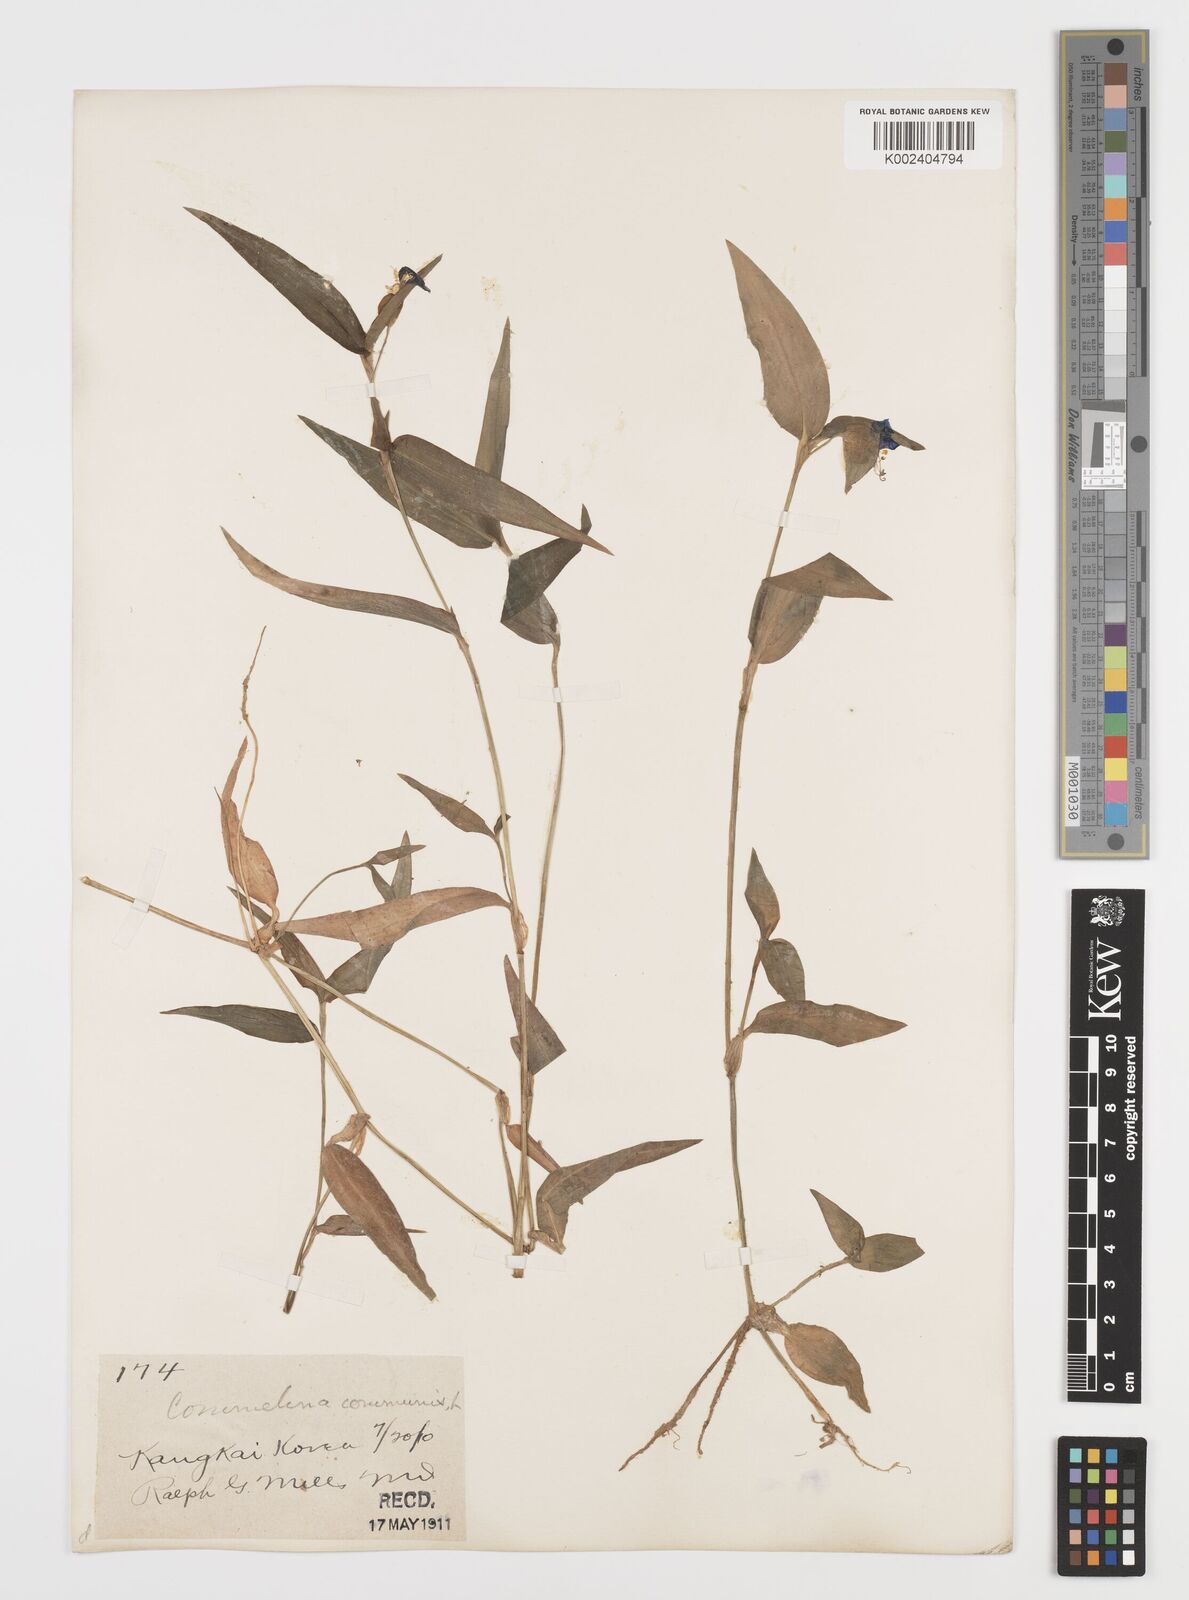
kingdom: Plantae
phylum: Tracheophyta
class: Liliopsida
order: Commelinales
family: Commelinaceae
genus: Commelina
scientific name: Commelina communis
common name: Asiatic dayflower
